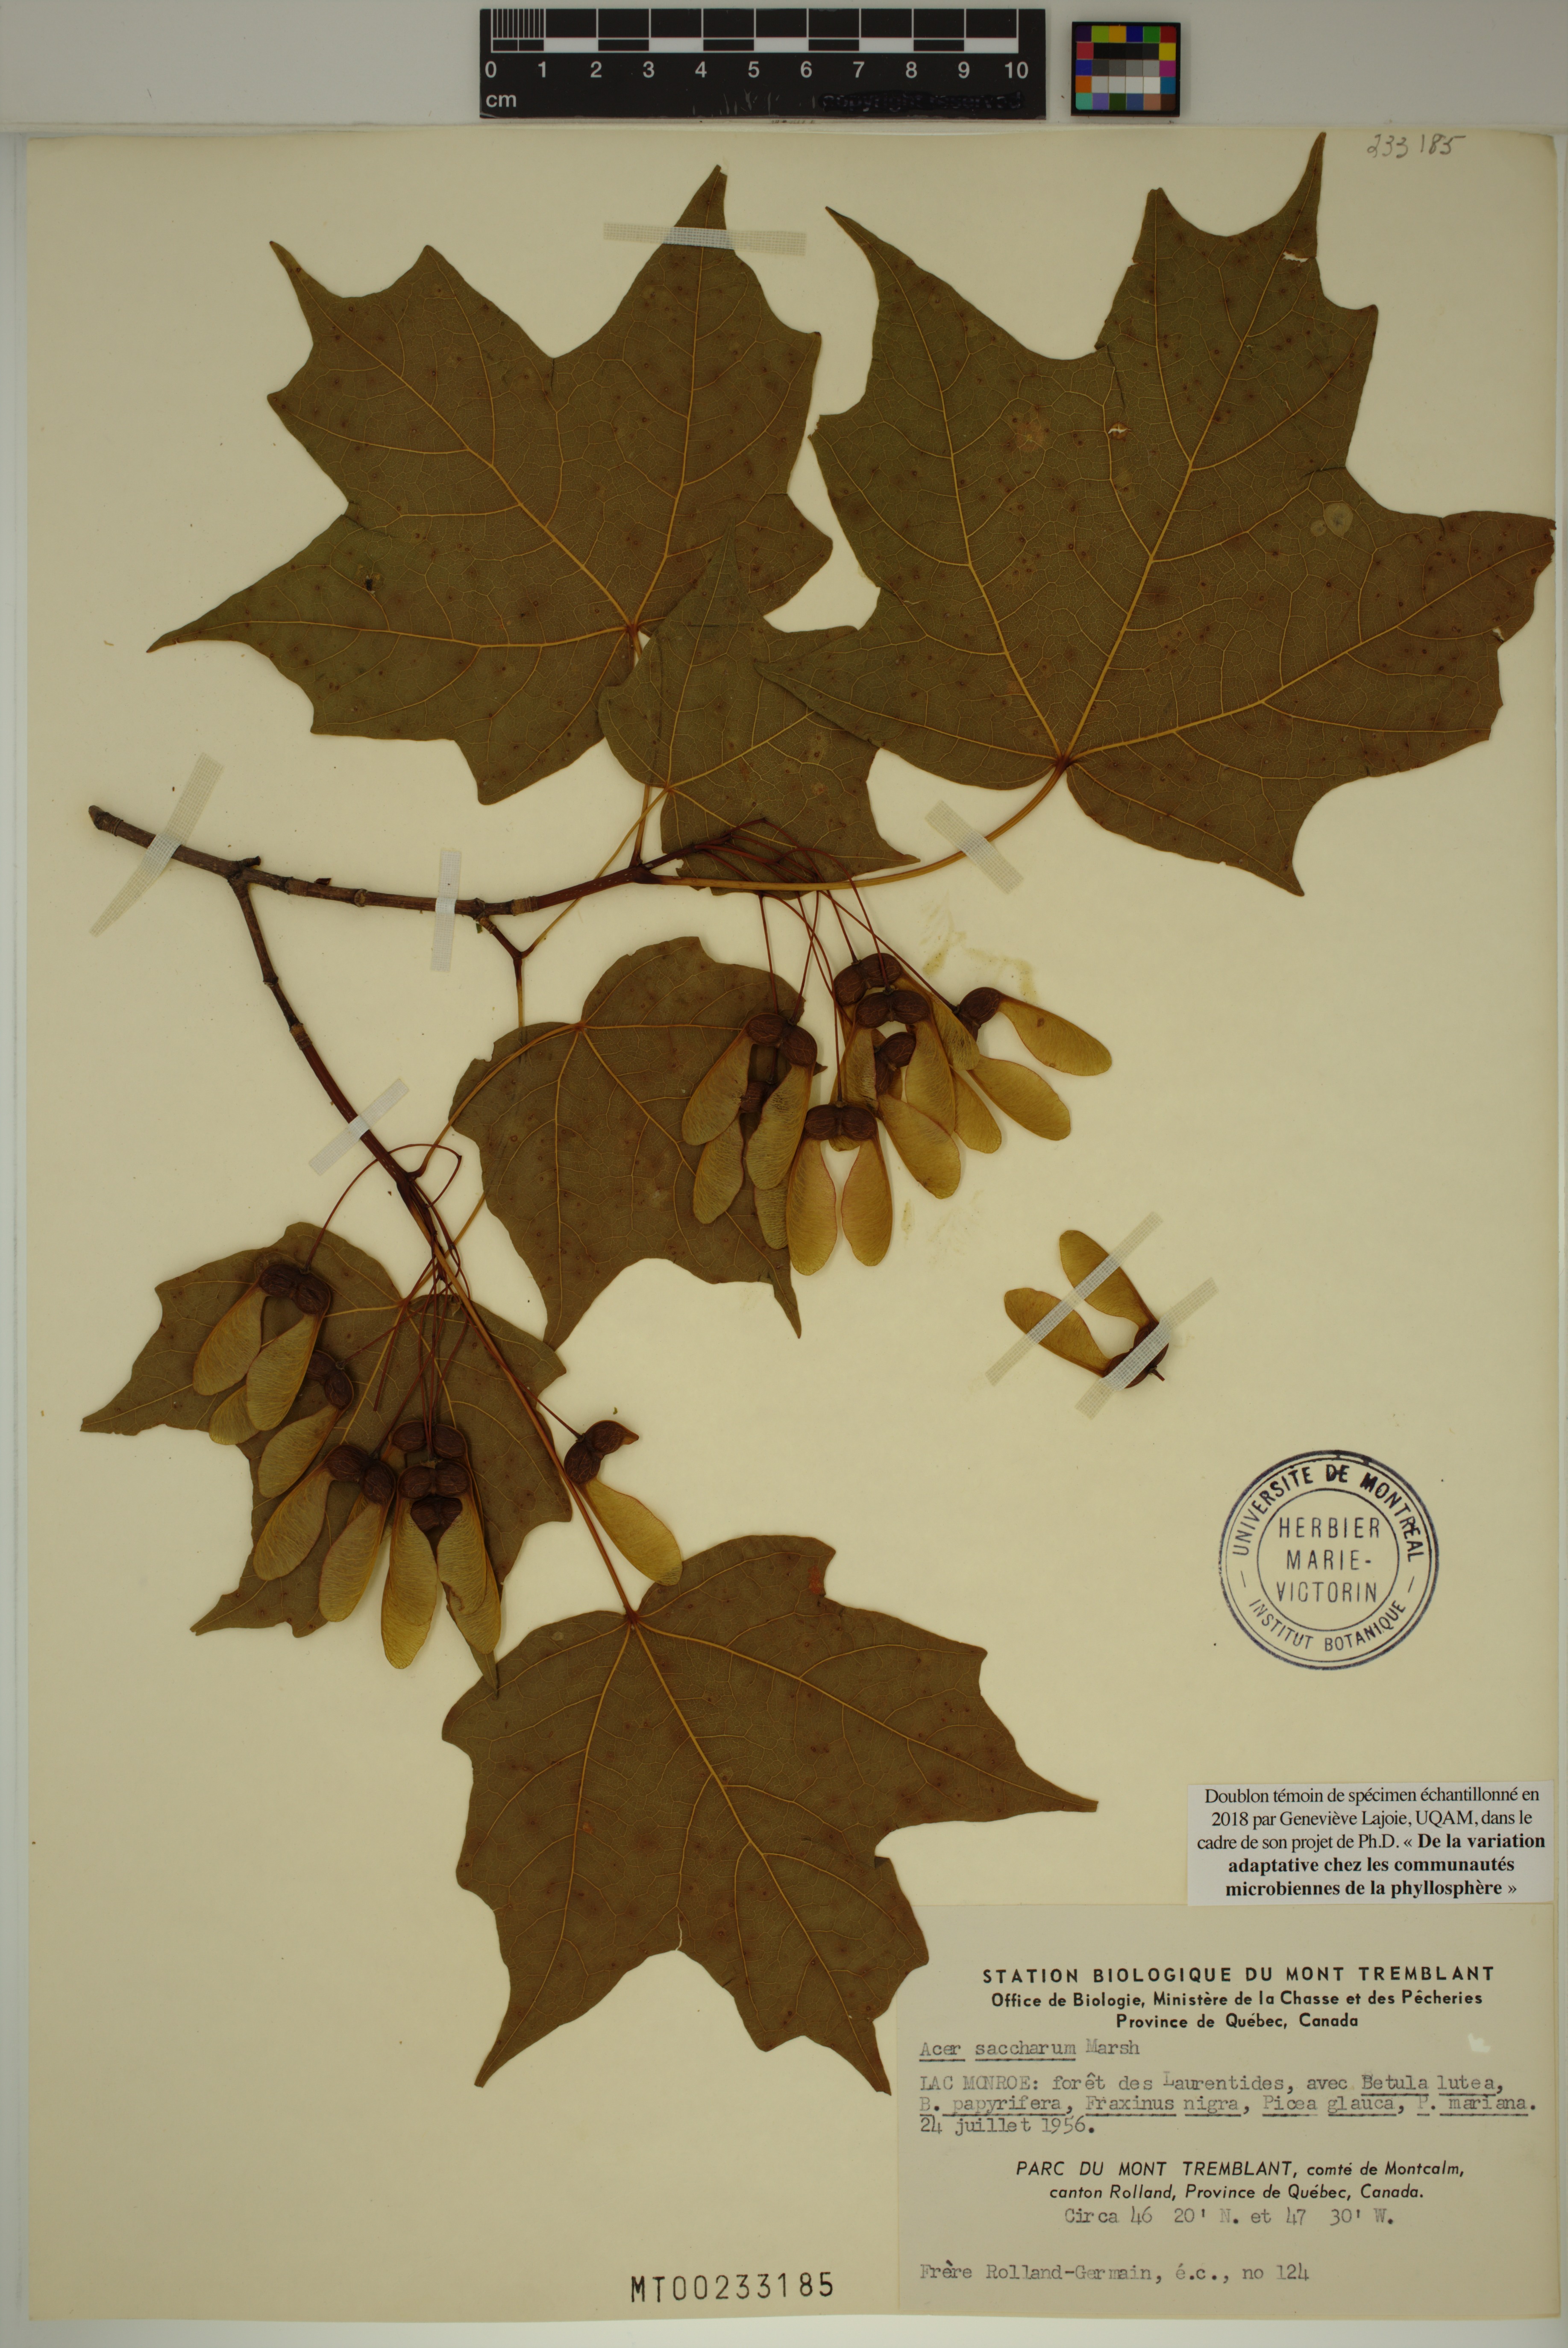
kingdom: Plantae
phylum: Tracheophyta
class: Magnoliopsida
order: Sapindales
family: Sapindaceae
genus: Acer
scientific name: Acer saccharum
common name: Sugar maple
